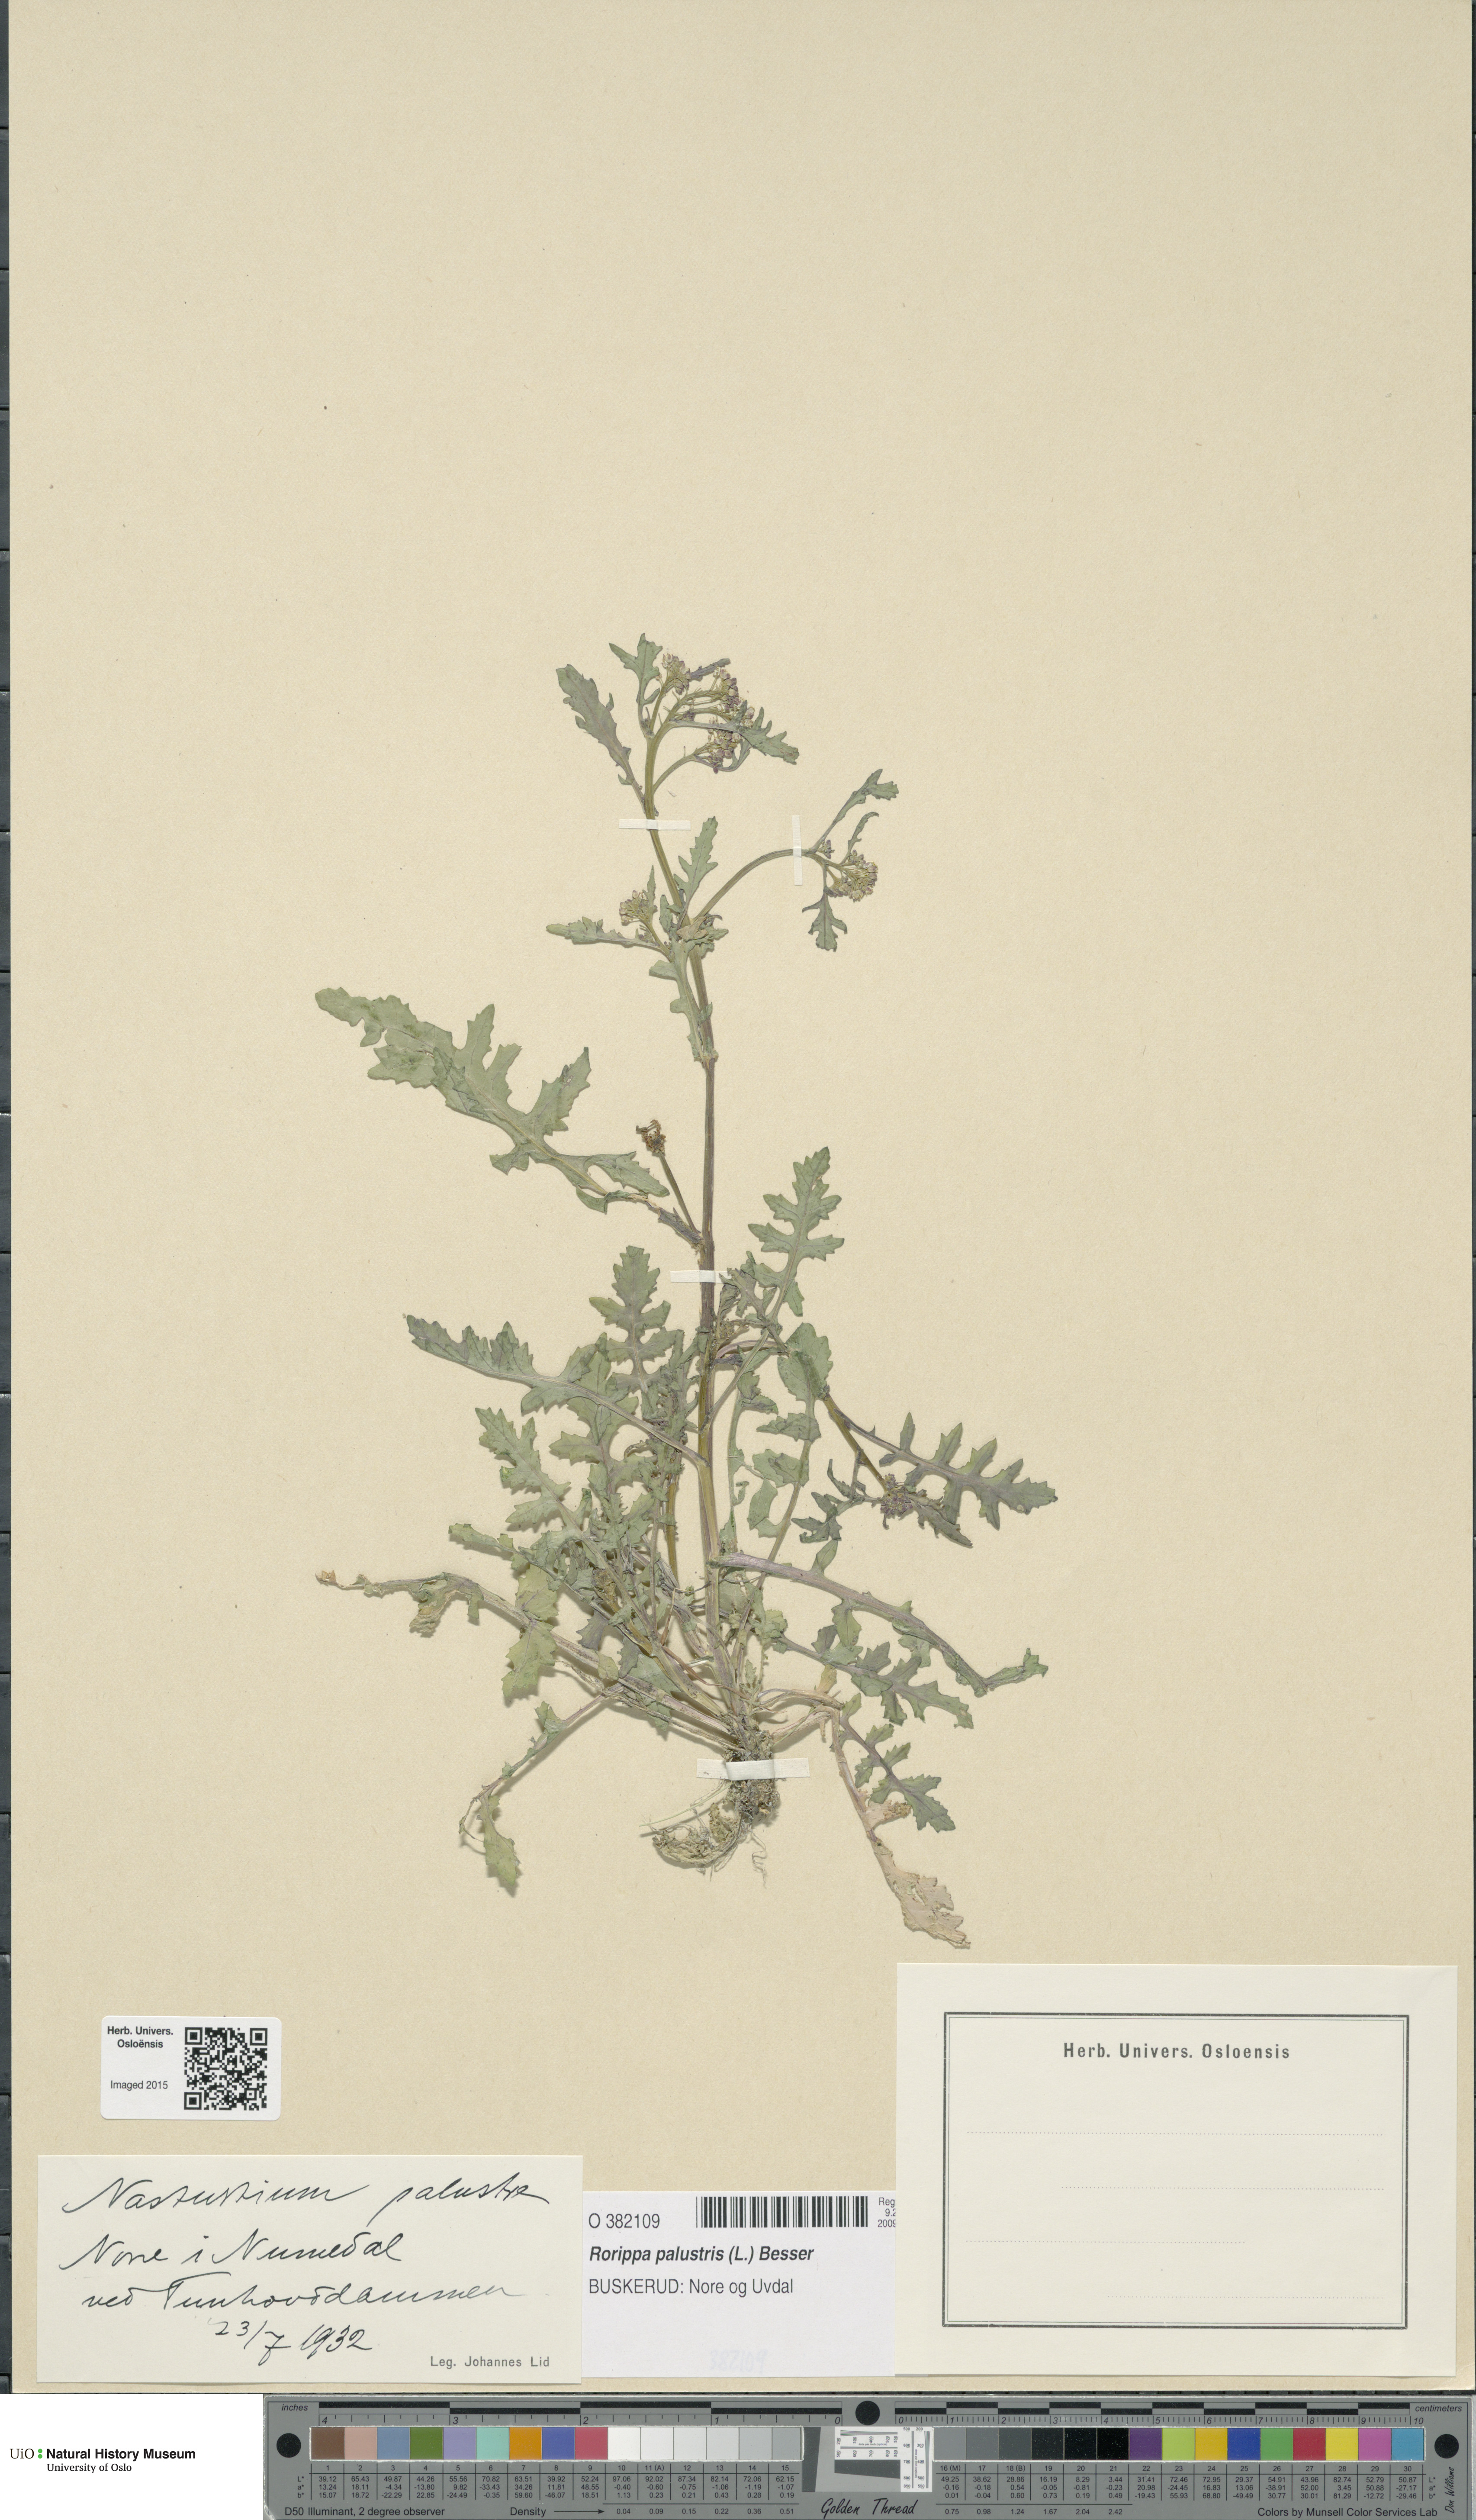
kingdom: Plantae
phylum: Tracheophyta
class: Magnoliopsida
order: Brassicales
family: Brassicaceae
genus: Rorippa
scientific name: Rorippa palustris
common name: Marsh yellow-cress
